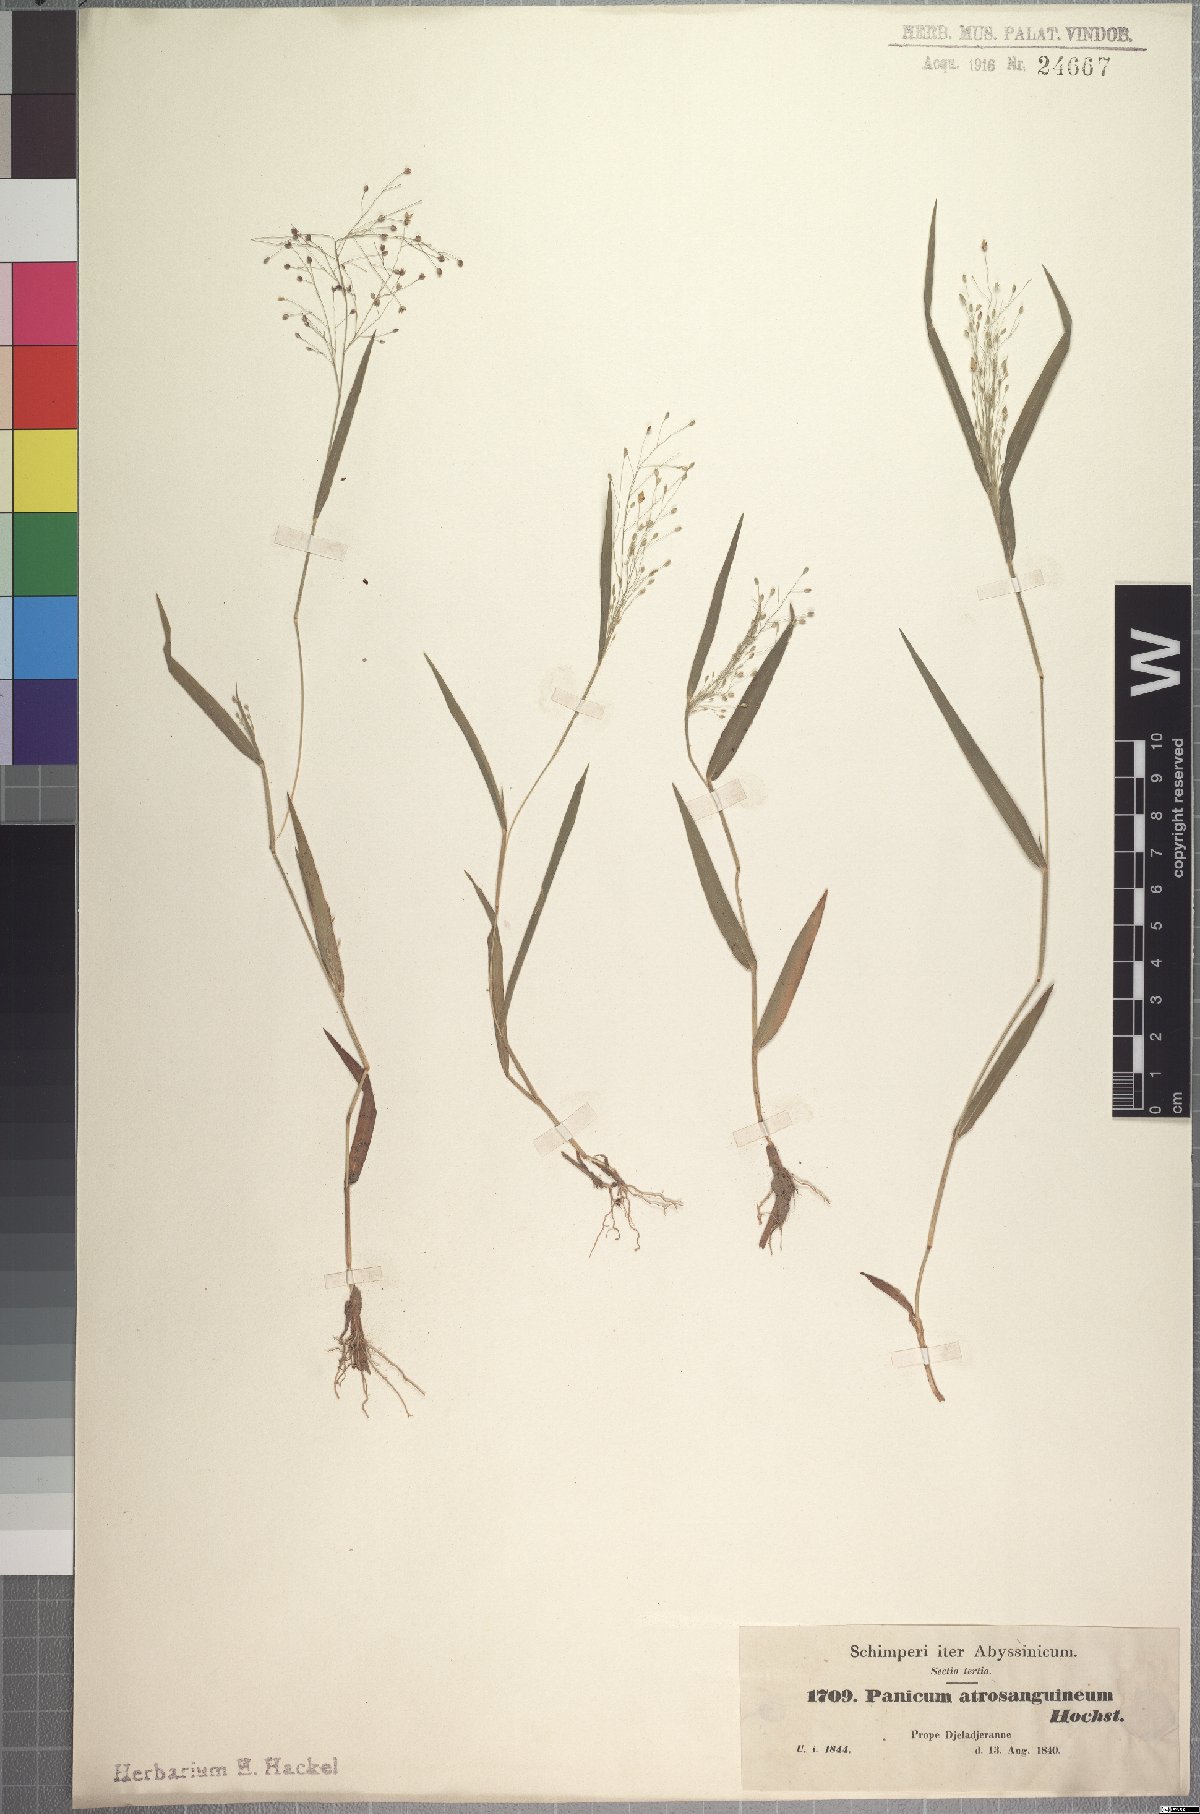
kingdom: Plantae
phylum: Tracheophyta
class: Liliopsida
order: Poales
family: Poaceae
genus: Panicum
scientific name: Panicum atrosanguineum
